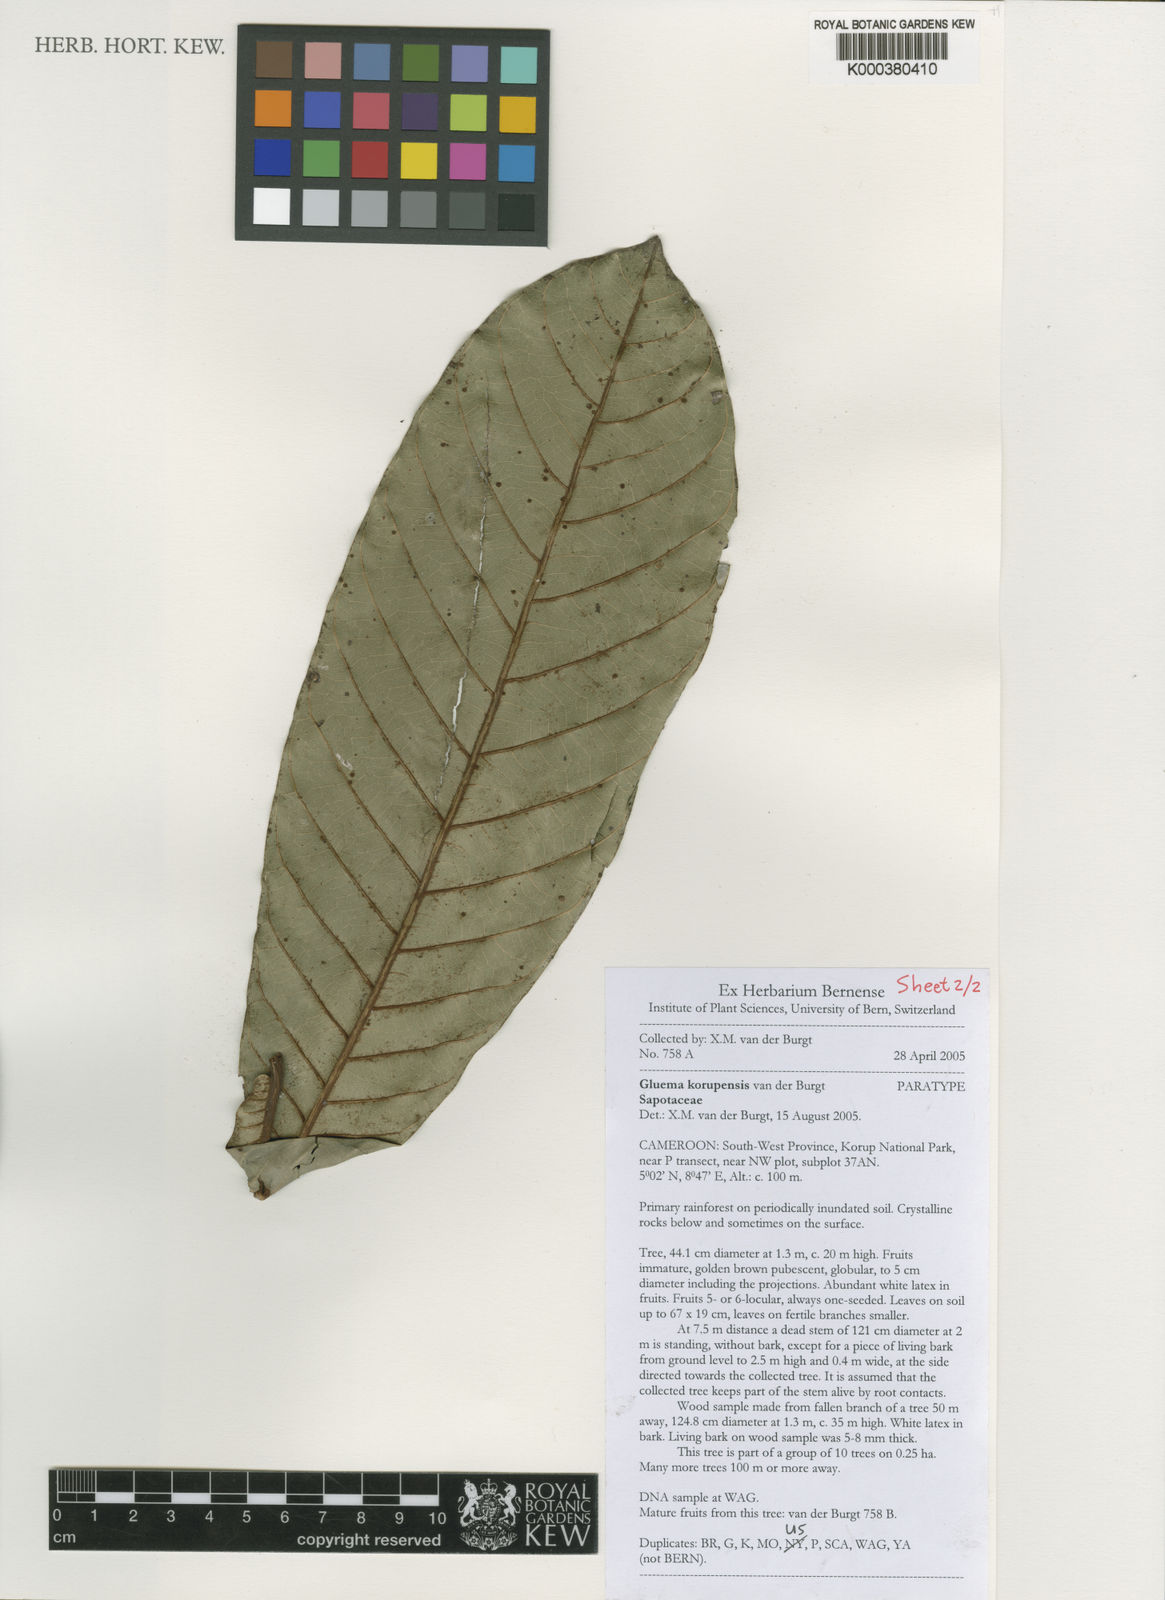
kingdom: Plantae
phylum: Tracheophyta
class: Magnoliopsida
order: Ericales
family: Sapotaceae
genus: Gluema
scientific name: Gluema korupensis
